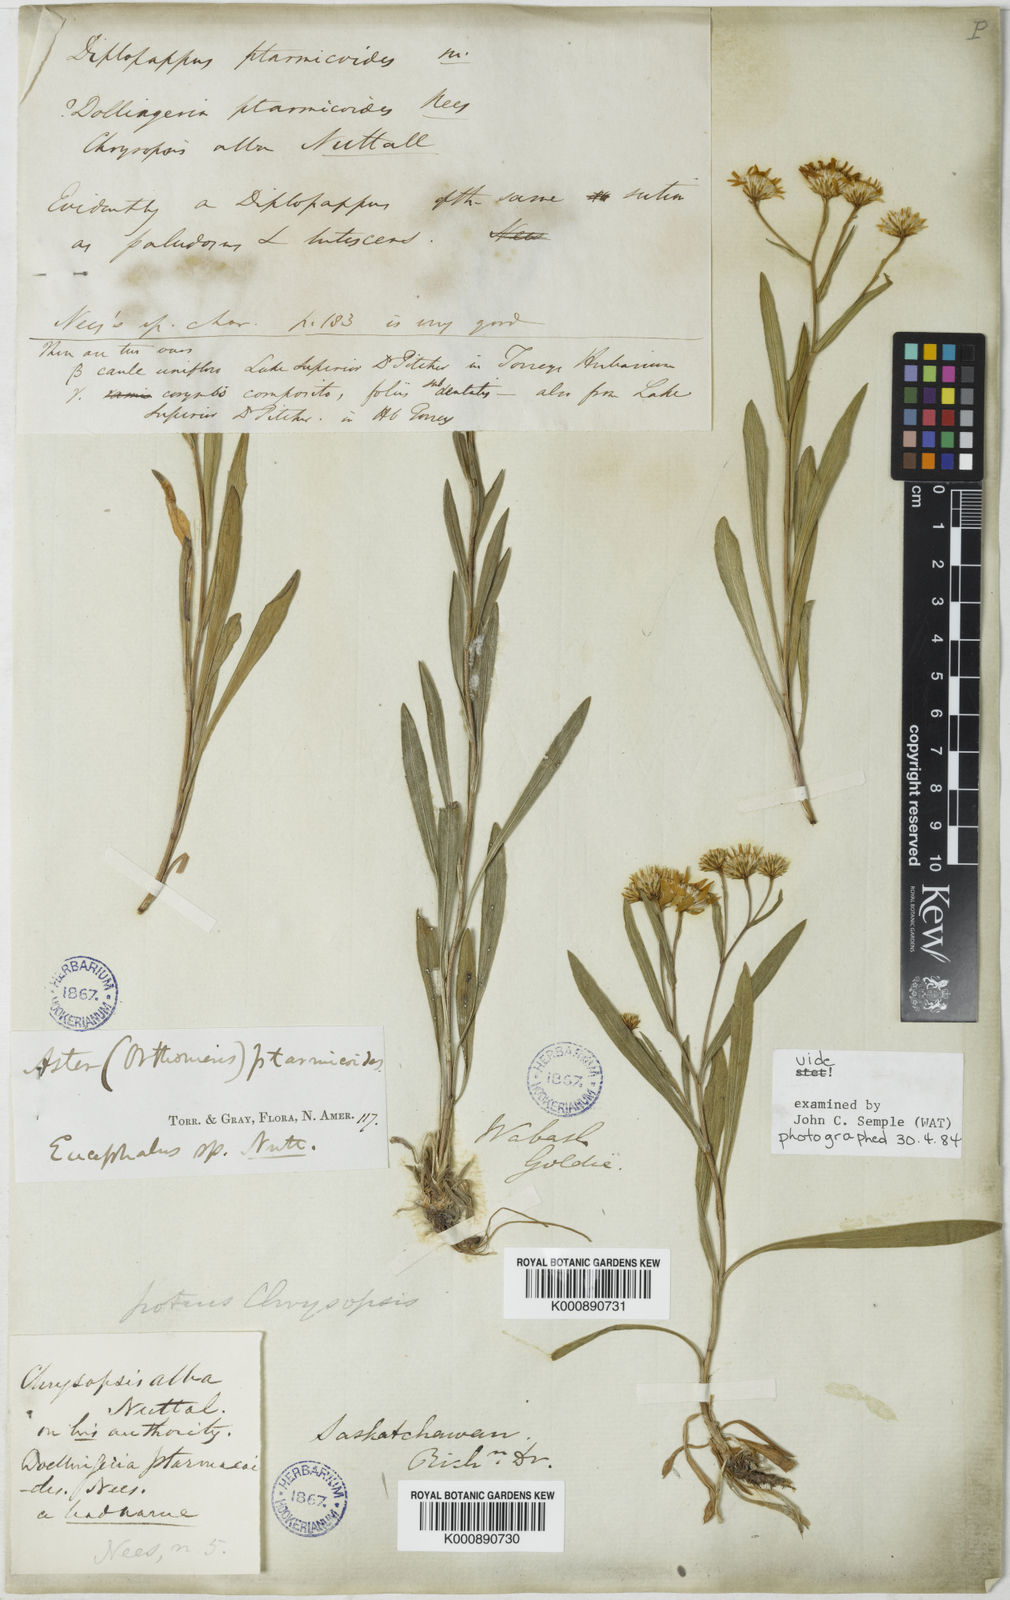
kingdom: Plantae
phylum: Tracheophyta
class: Magnoliopsida
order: Asterales
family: Asteraceae
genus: Solidago
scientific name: Solidago ptarmicoides
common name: White flat-top goldenrod
